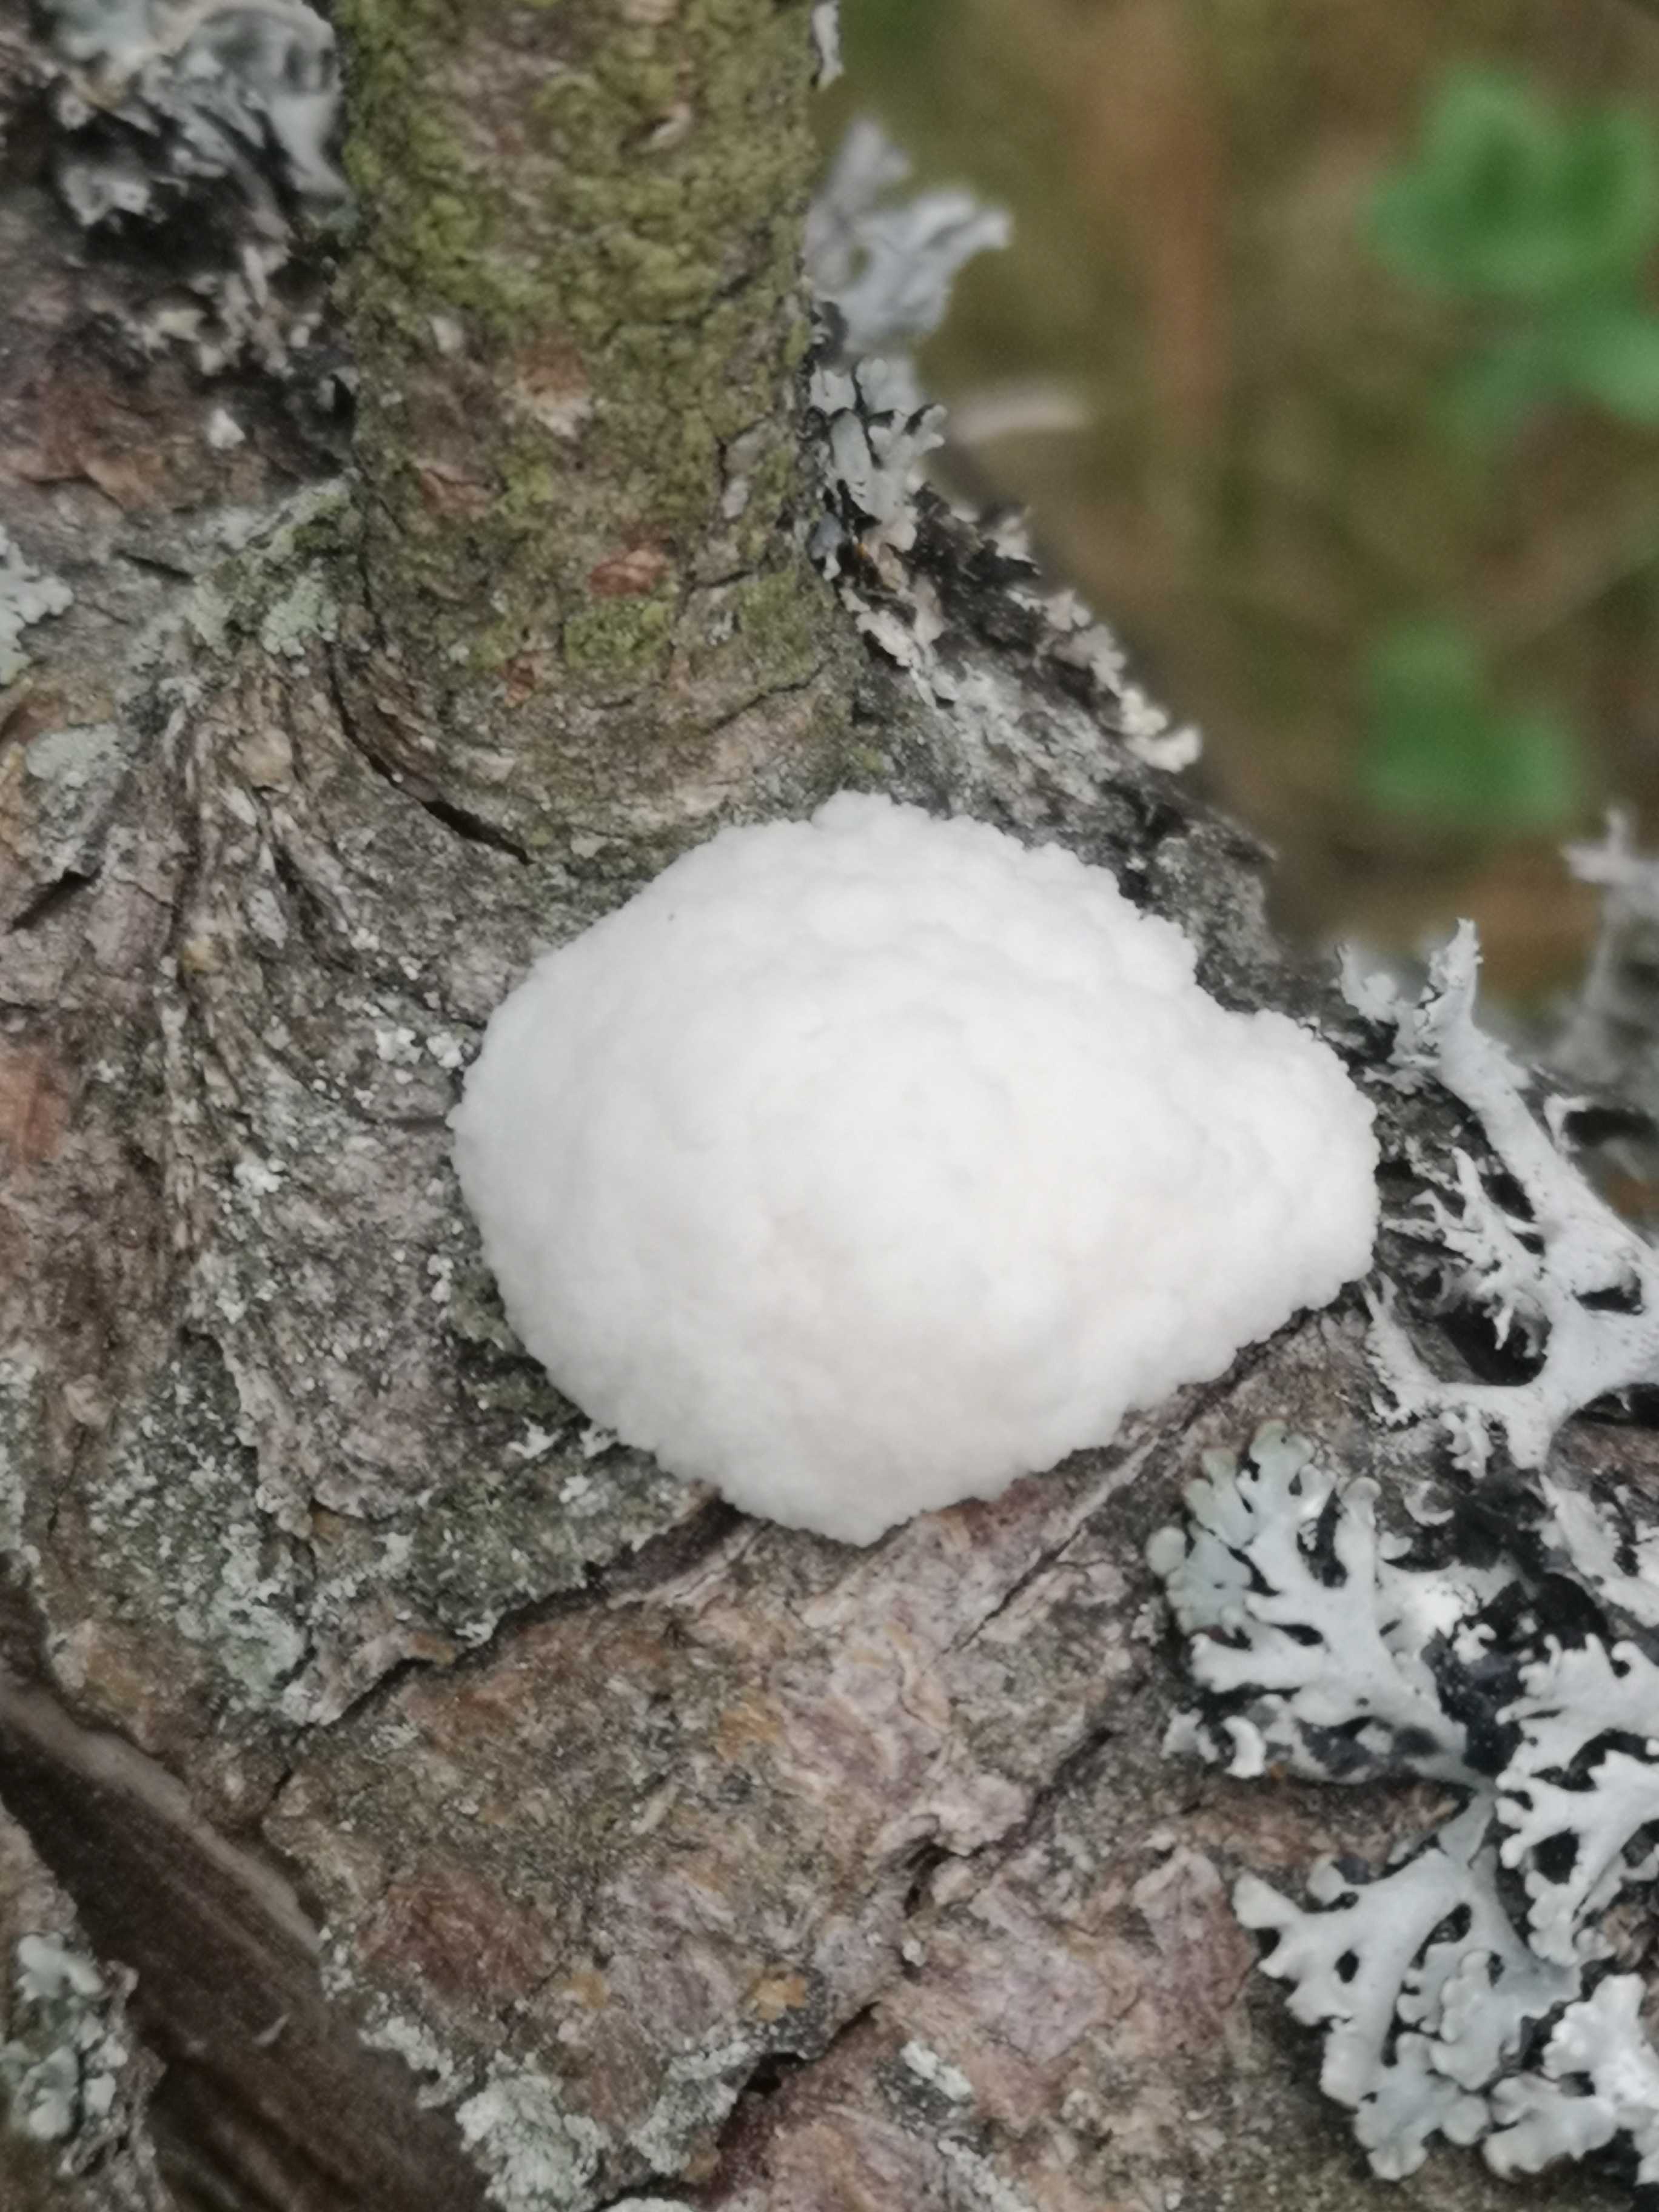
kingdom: Protozoa
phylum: Mycetozoa
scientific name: Mycetozoa
